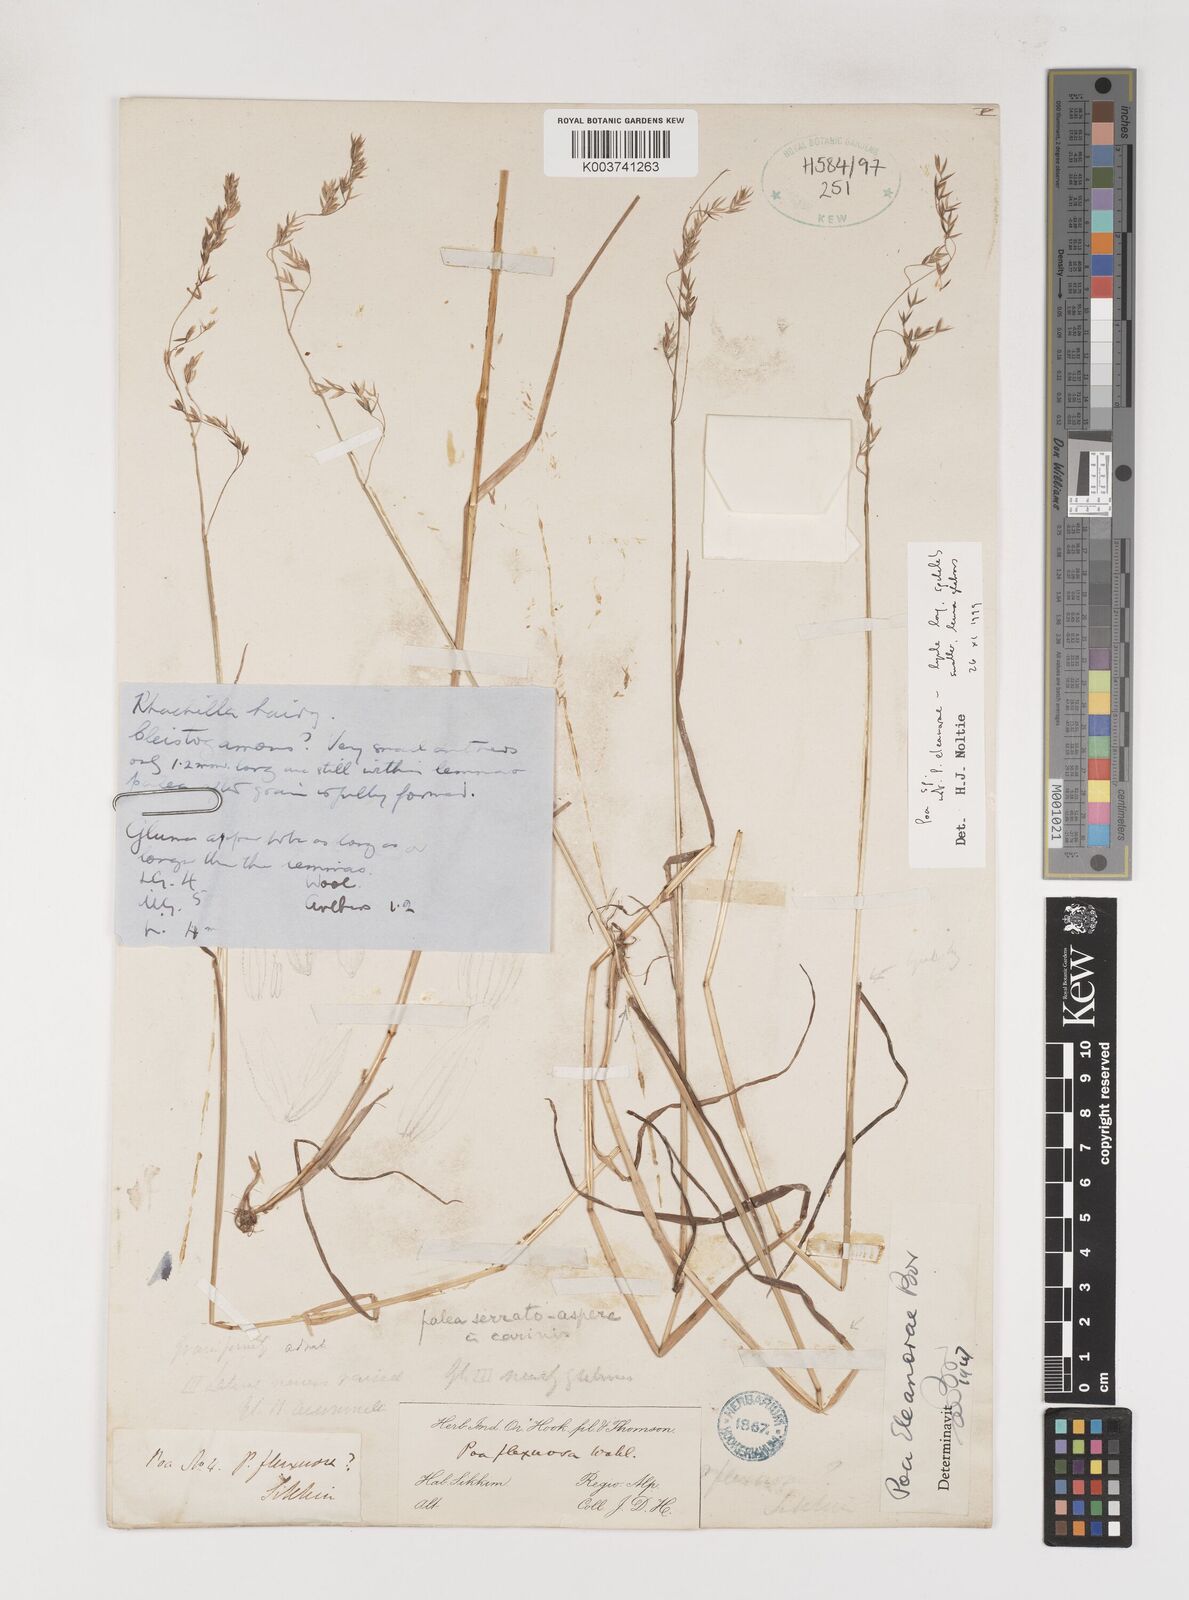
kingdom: Plantae
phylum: Tracheophyta
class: Liliopsida
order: Poales
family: Poaceae
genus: Poa
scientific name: Poa
